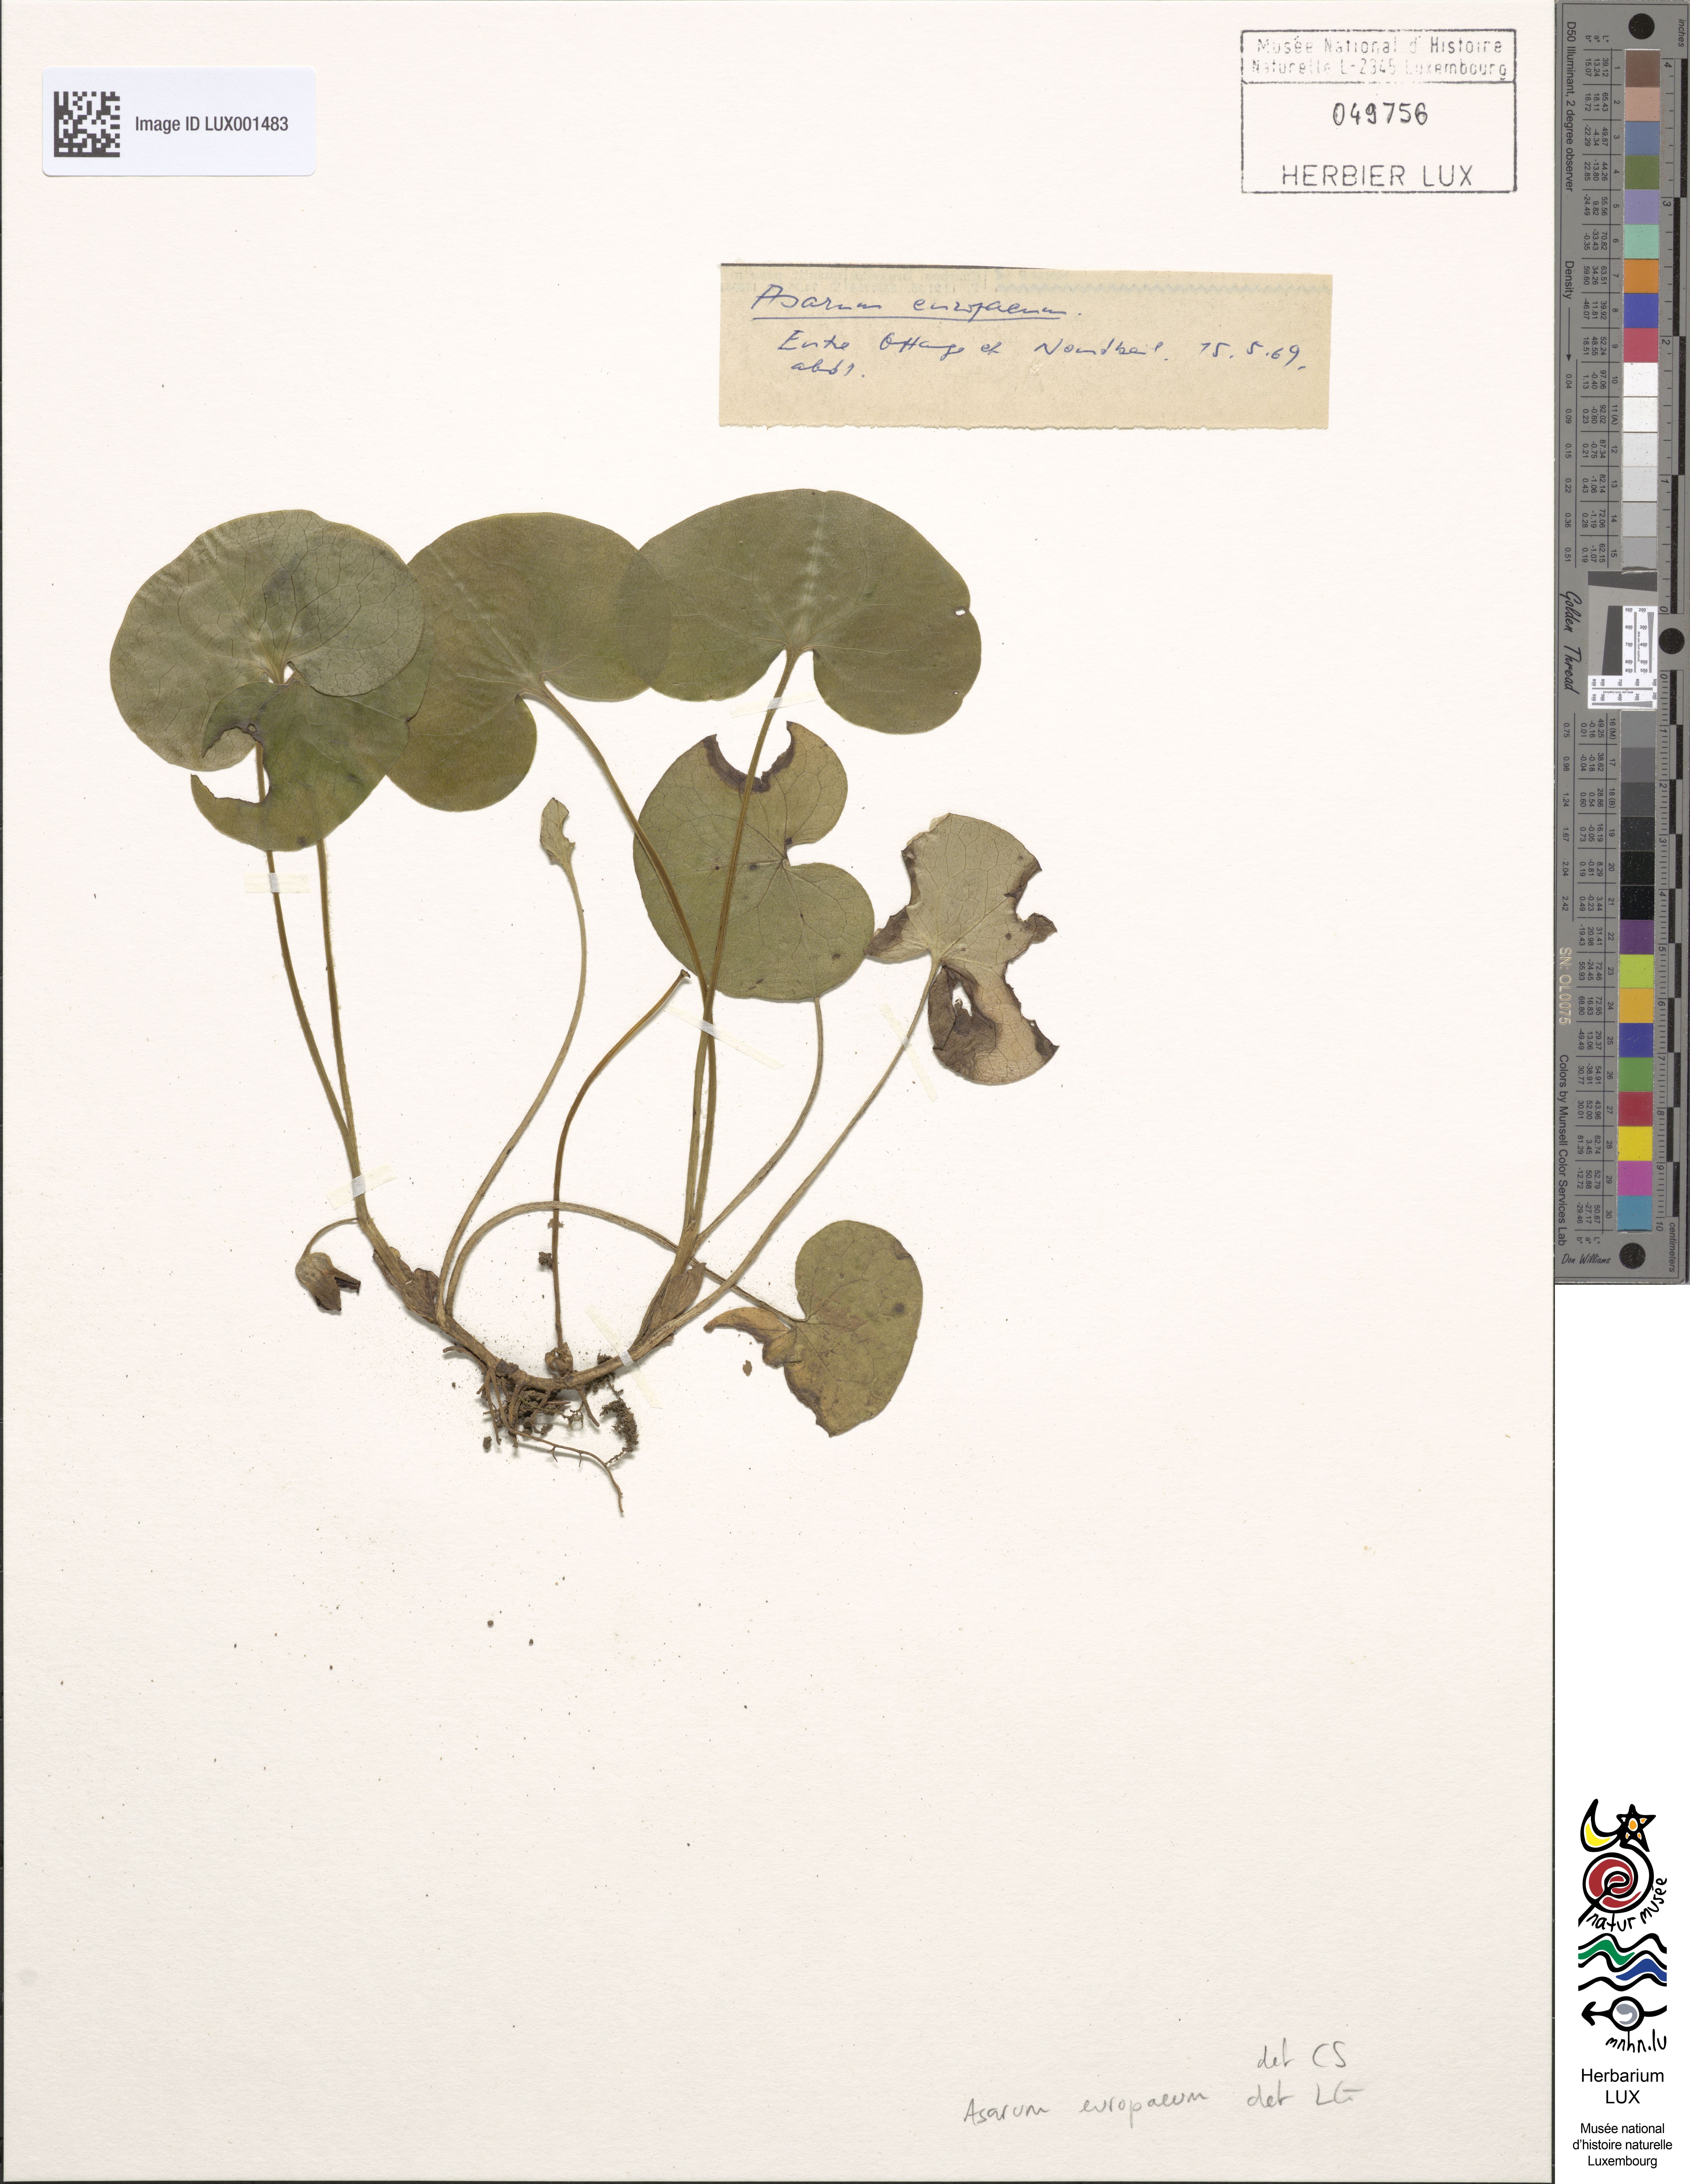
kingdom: Plantae
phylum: Tracheophyta
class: Magnoliopsida
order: Piperales
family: Aristolochiaceae
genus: Asarum
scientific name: Asarum europaeum
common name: Asarabacca
